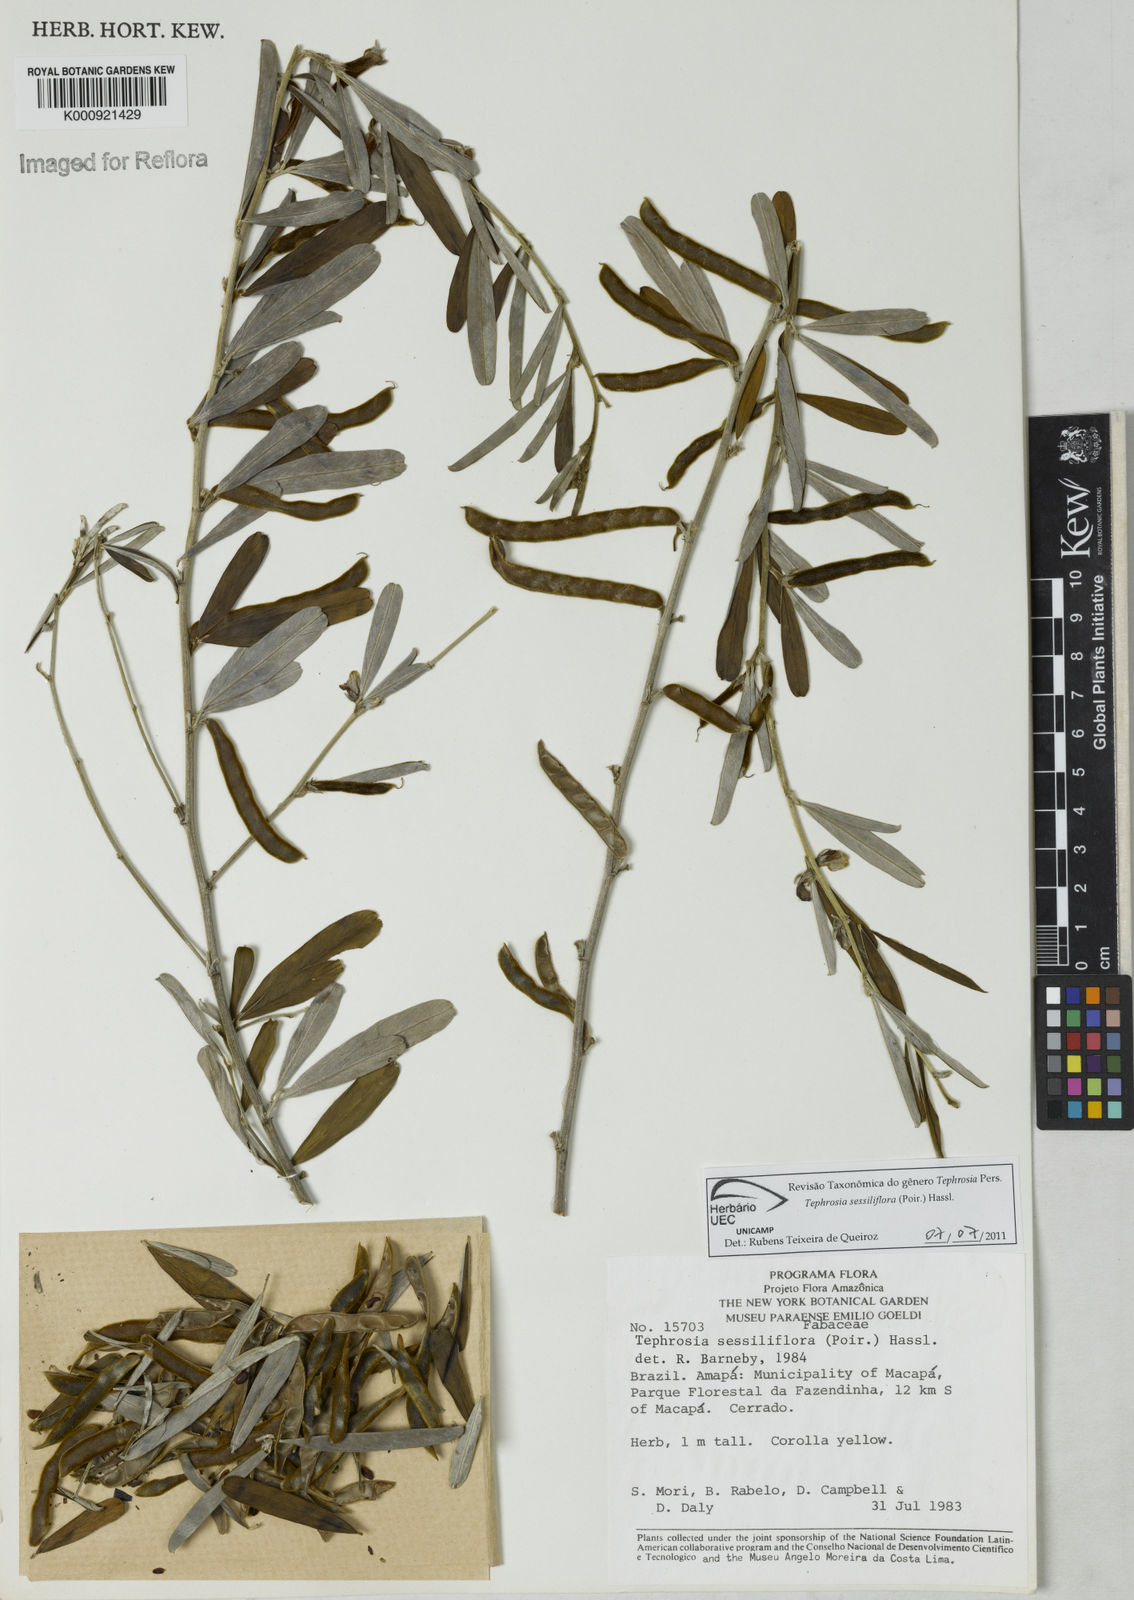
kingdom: Plantae
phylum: Tracheophyta
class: Magnoliopsida
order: Fabales
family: Fabaceae
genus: Tephrosia
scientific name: Tephrosia sessiliflora
